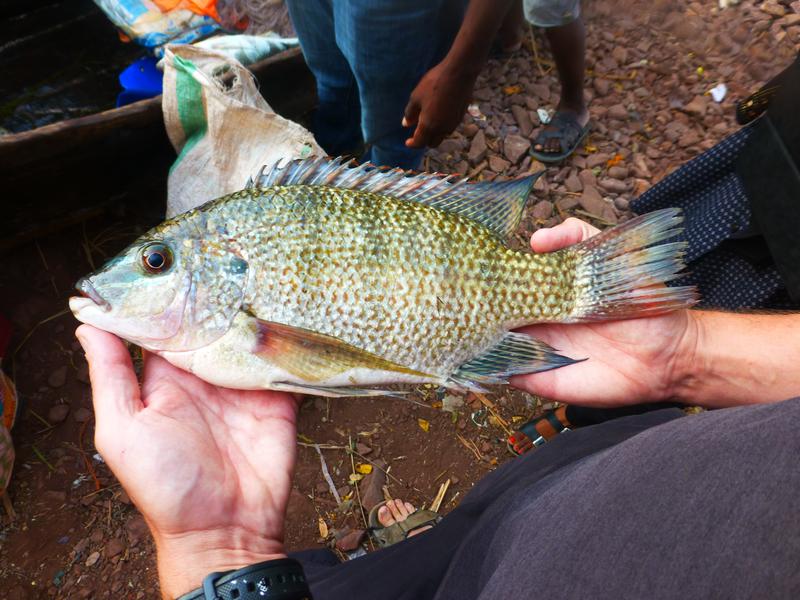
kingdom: Animalia
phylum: Chordata
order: Perciformes
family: Cichlidae
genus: Oreochromis
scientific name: Oreochromis tanganicae
